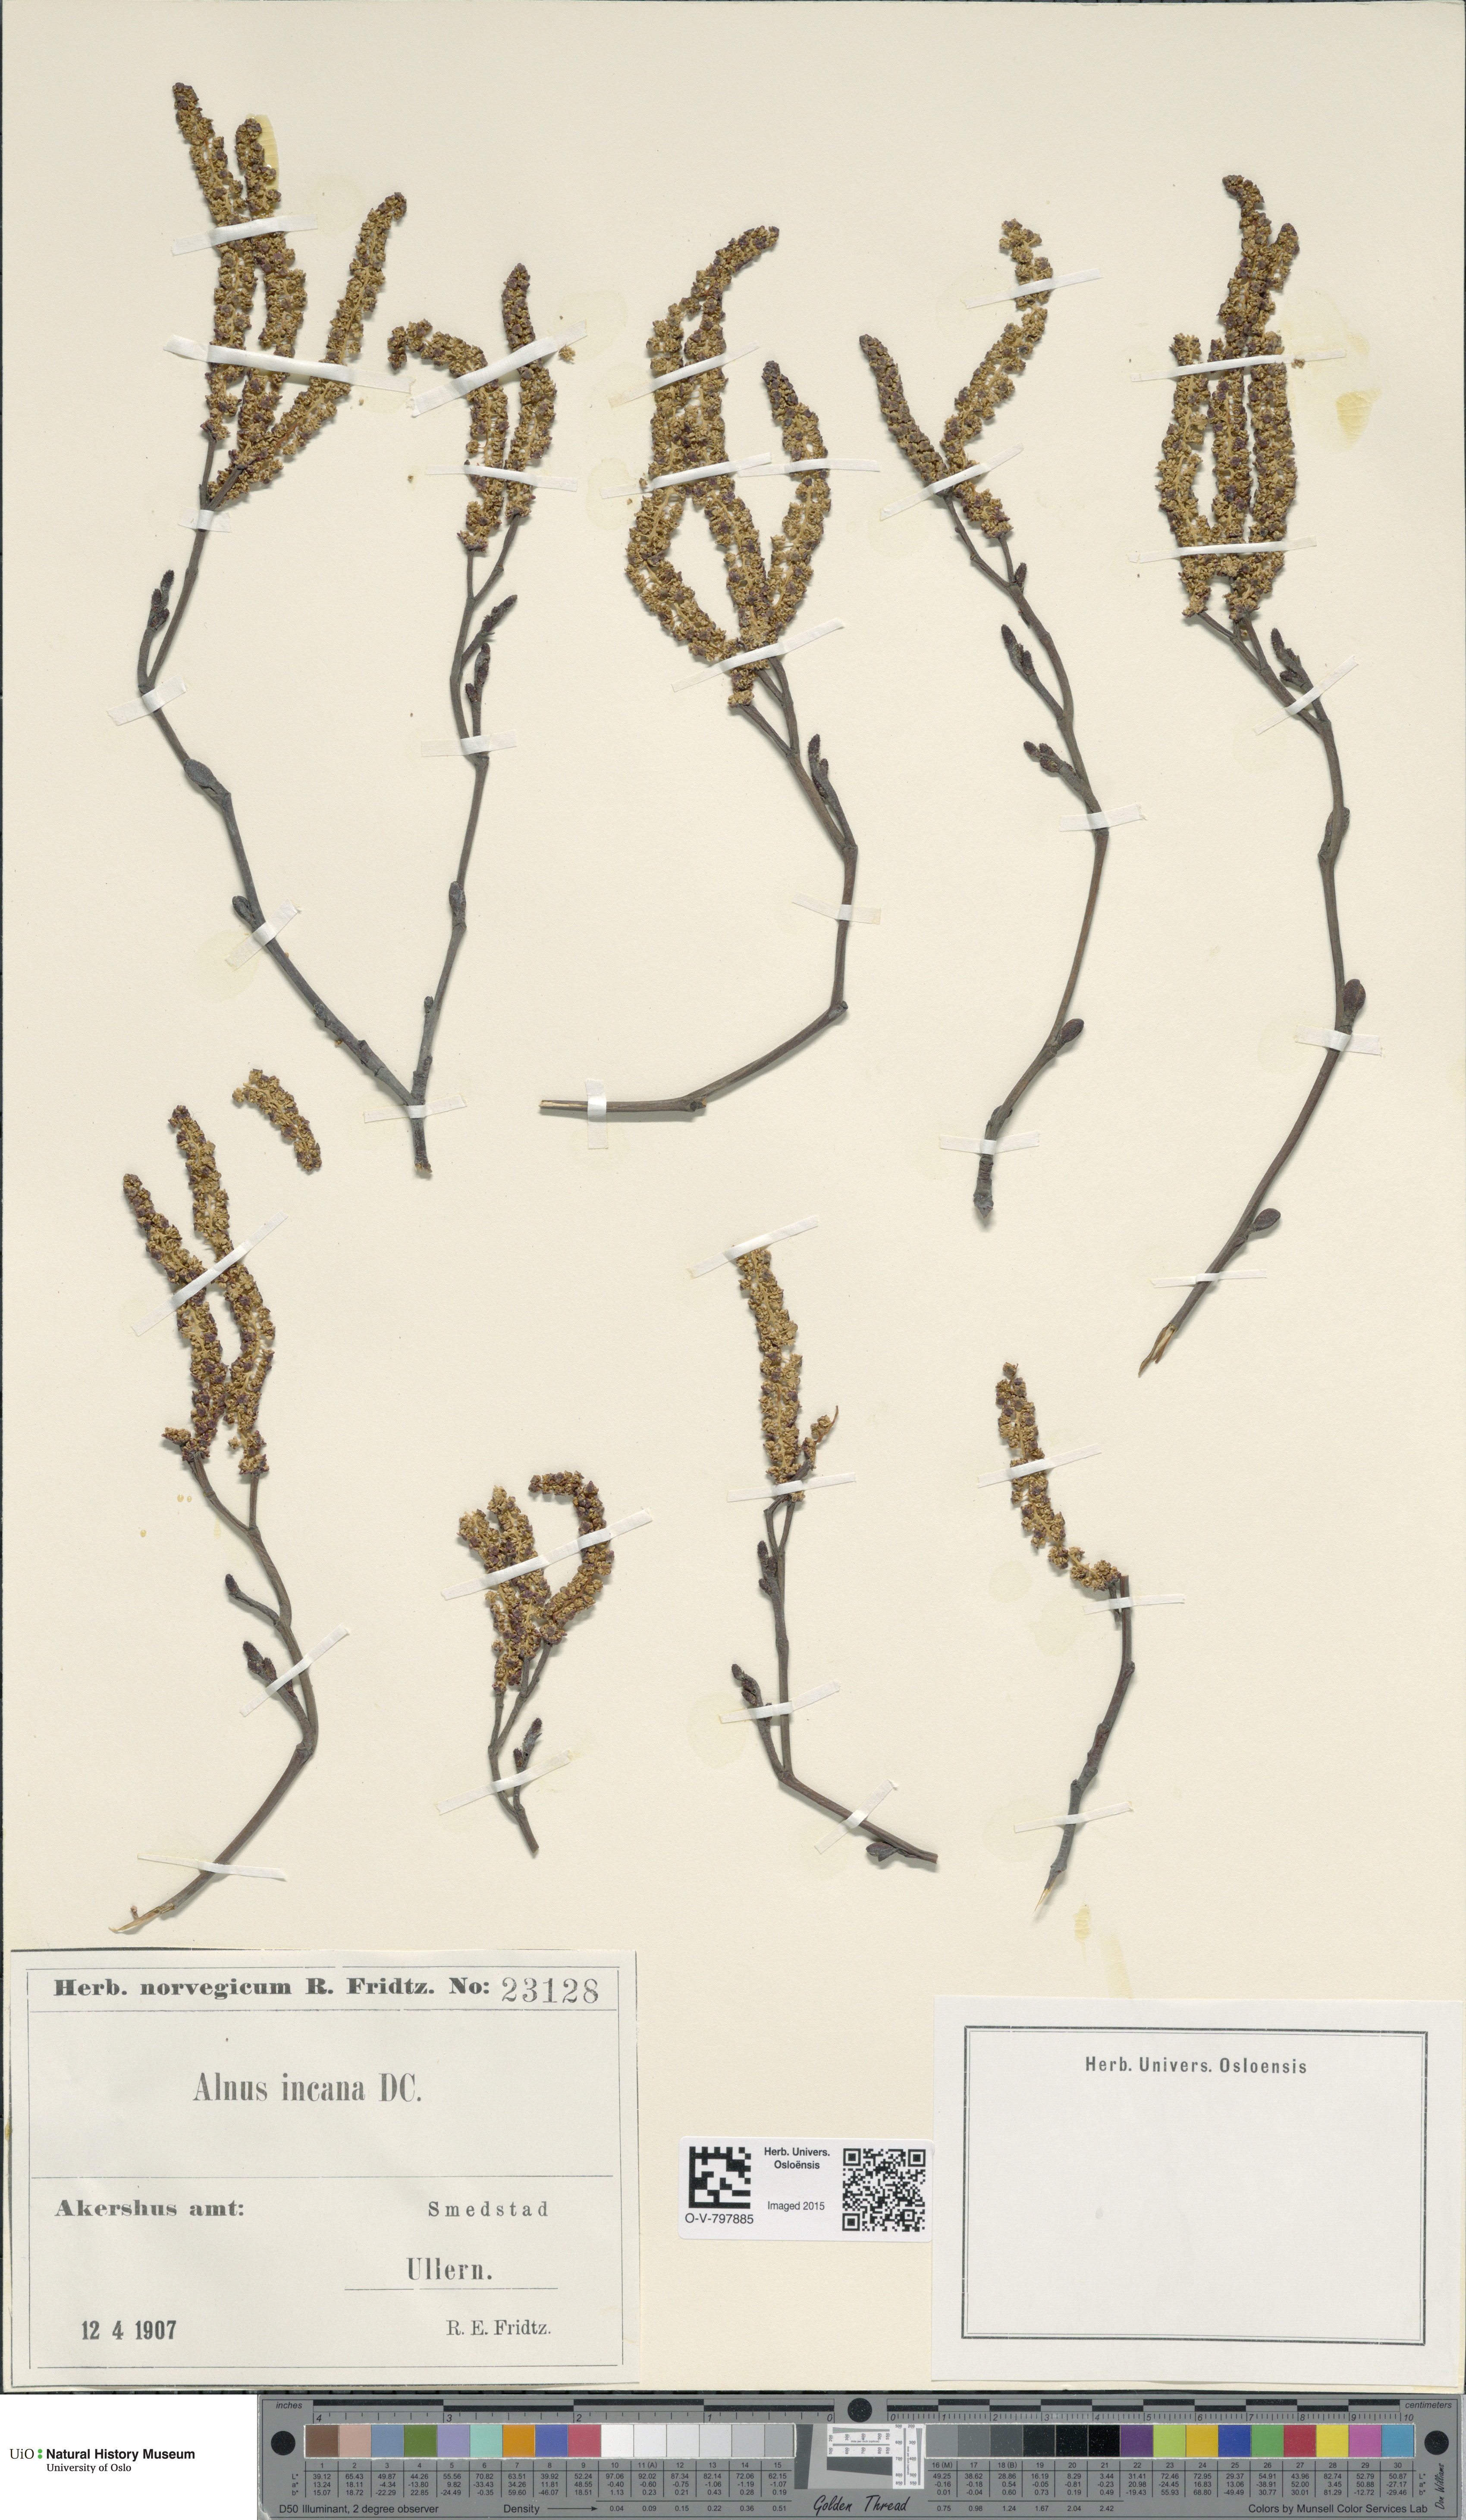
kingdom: Plantae
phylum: Tracheophyta
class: Magnoliopsida
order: Fagales
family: Betulaceae
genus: Alnus
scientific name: Alnus incana
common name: Grey alder
